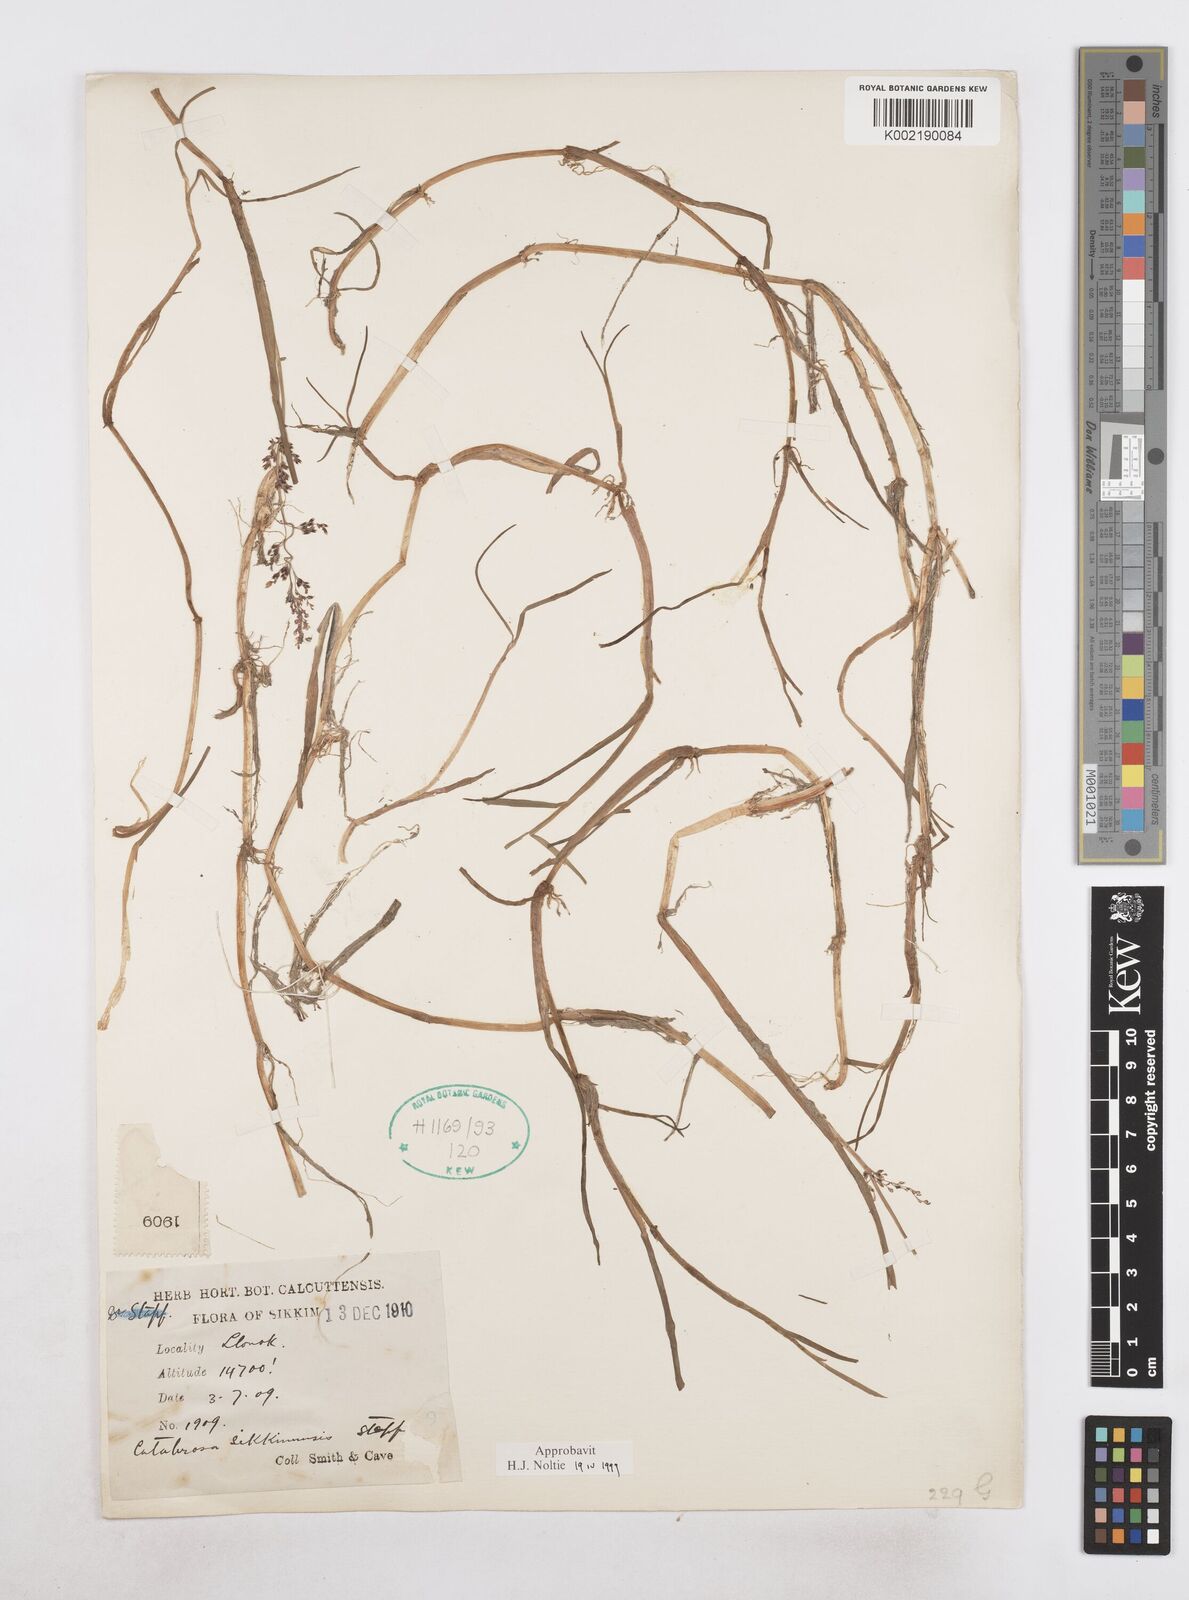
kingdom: Plantae
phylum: Tracheophyta
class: Liliopsida
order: Poales
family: Poaceae
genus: Catabrosa
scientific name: Catabrosa aquatica
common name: Whorl-grass
